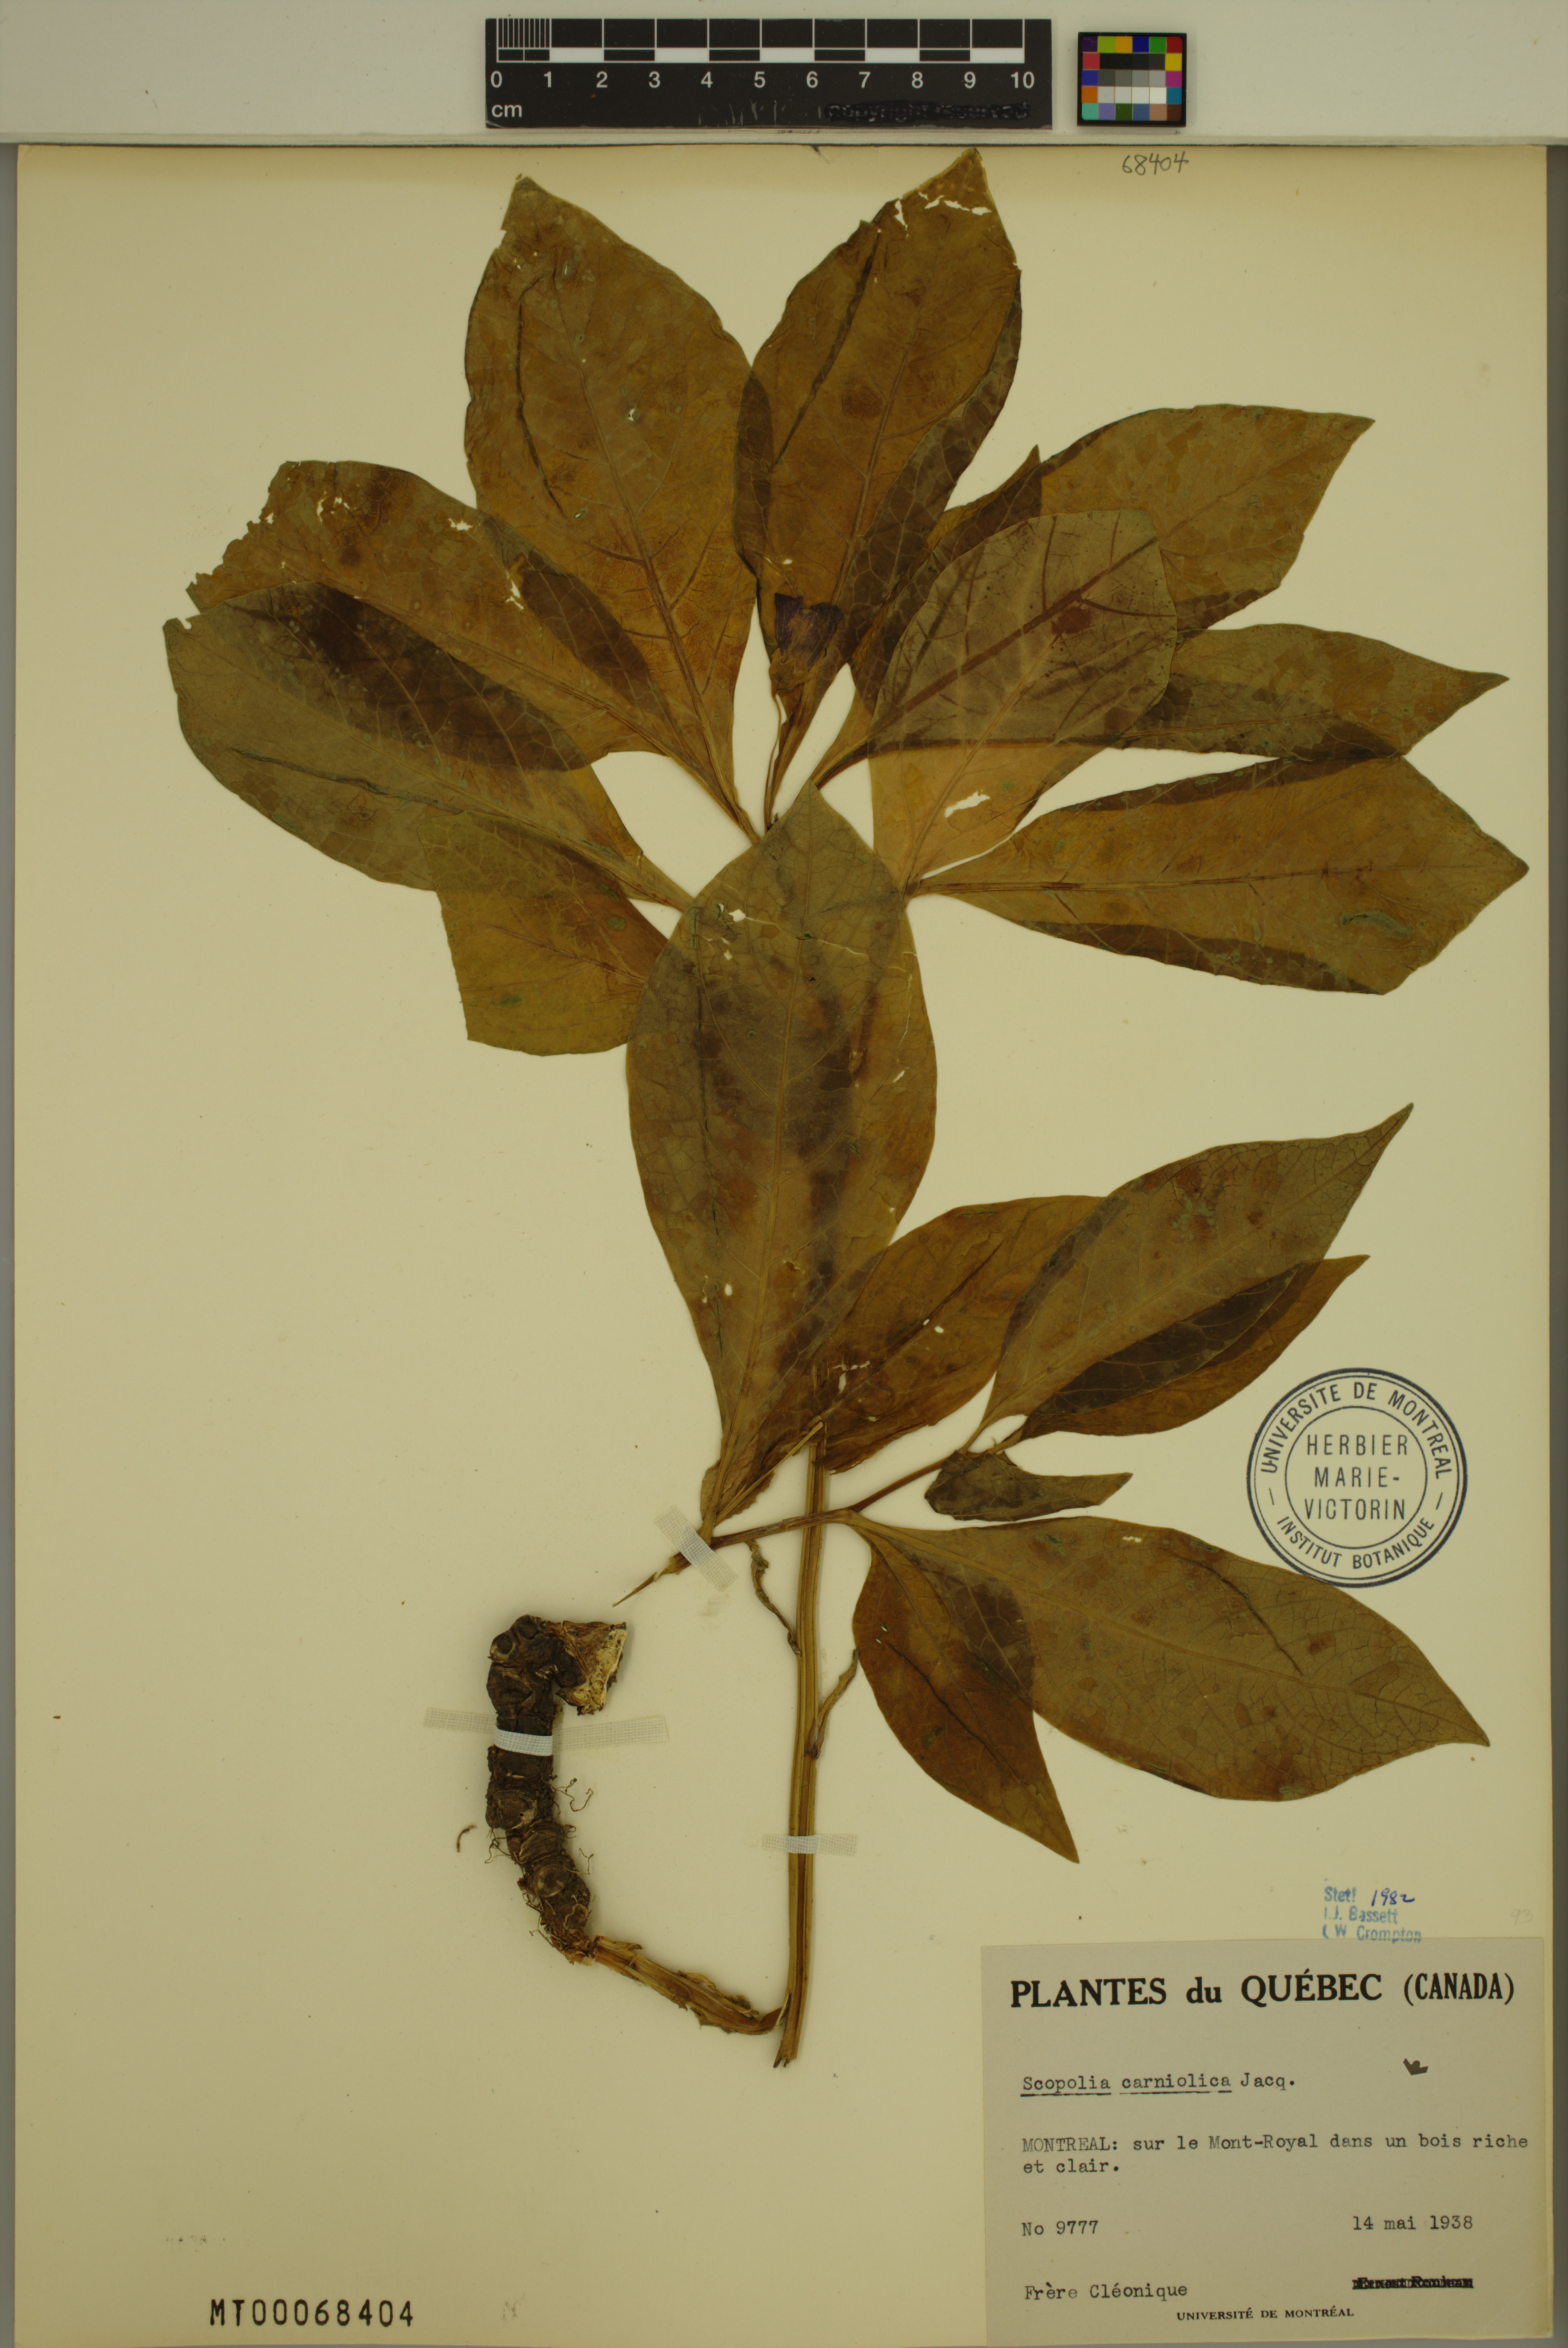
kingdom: Plantae
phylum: Tracheophyta
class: Magnoliopsida
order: Solanales
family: Solanaceae
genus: Scopolia
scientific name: Scopolia carniolica
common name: Scopolia
